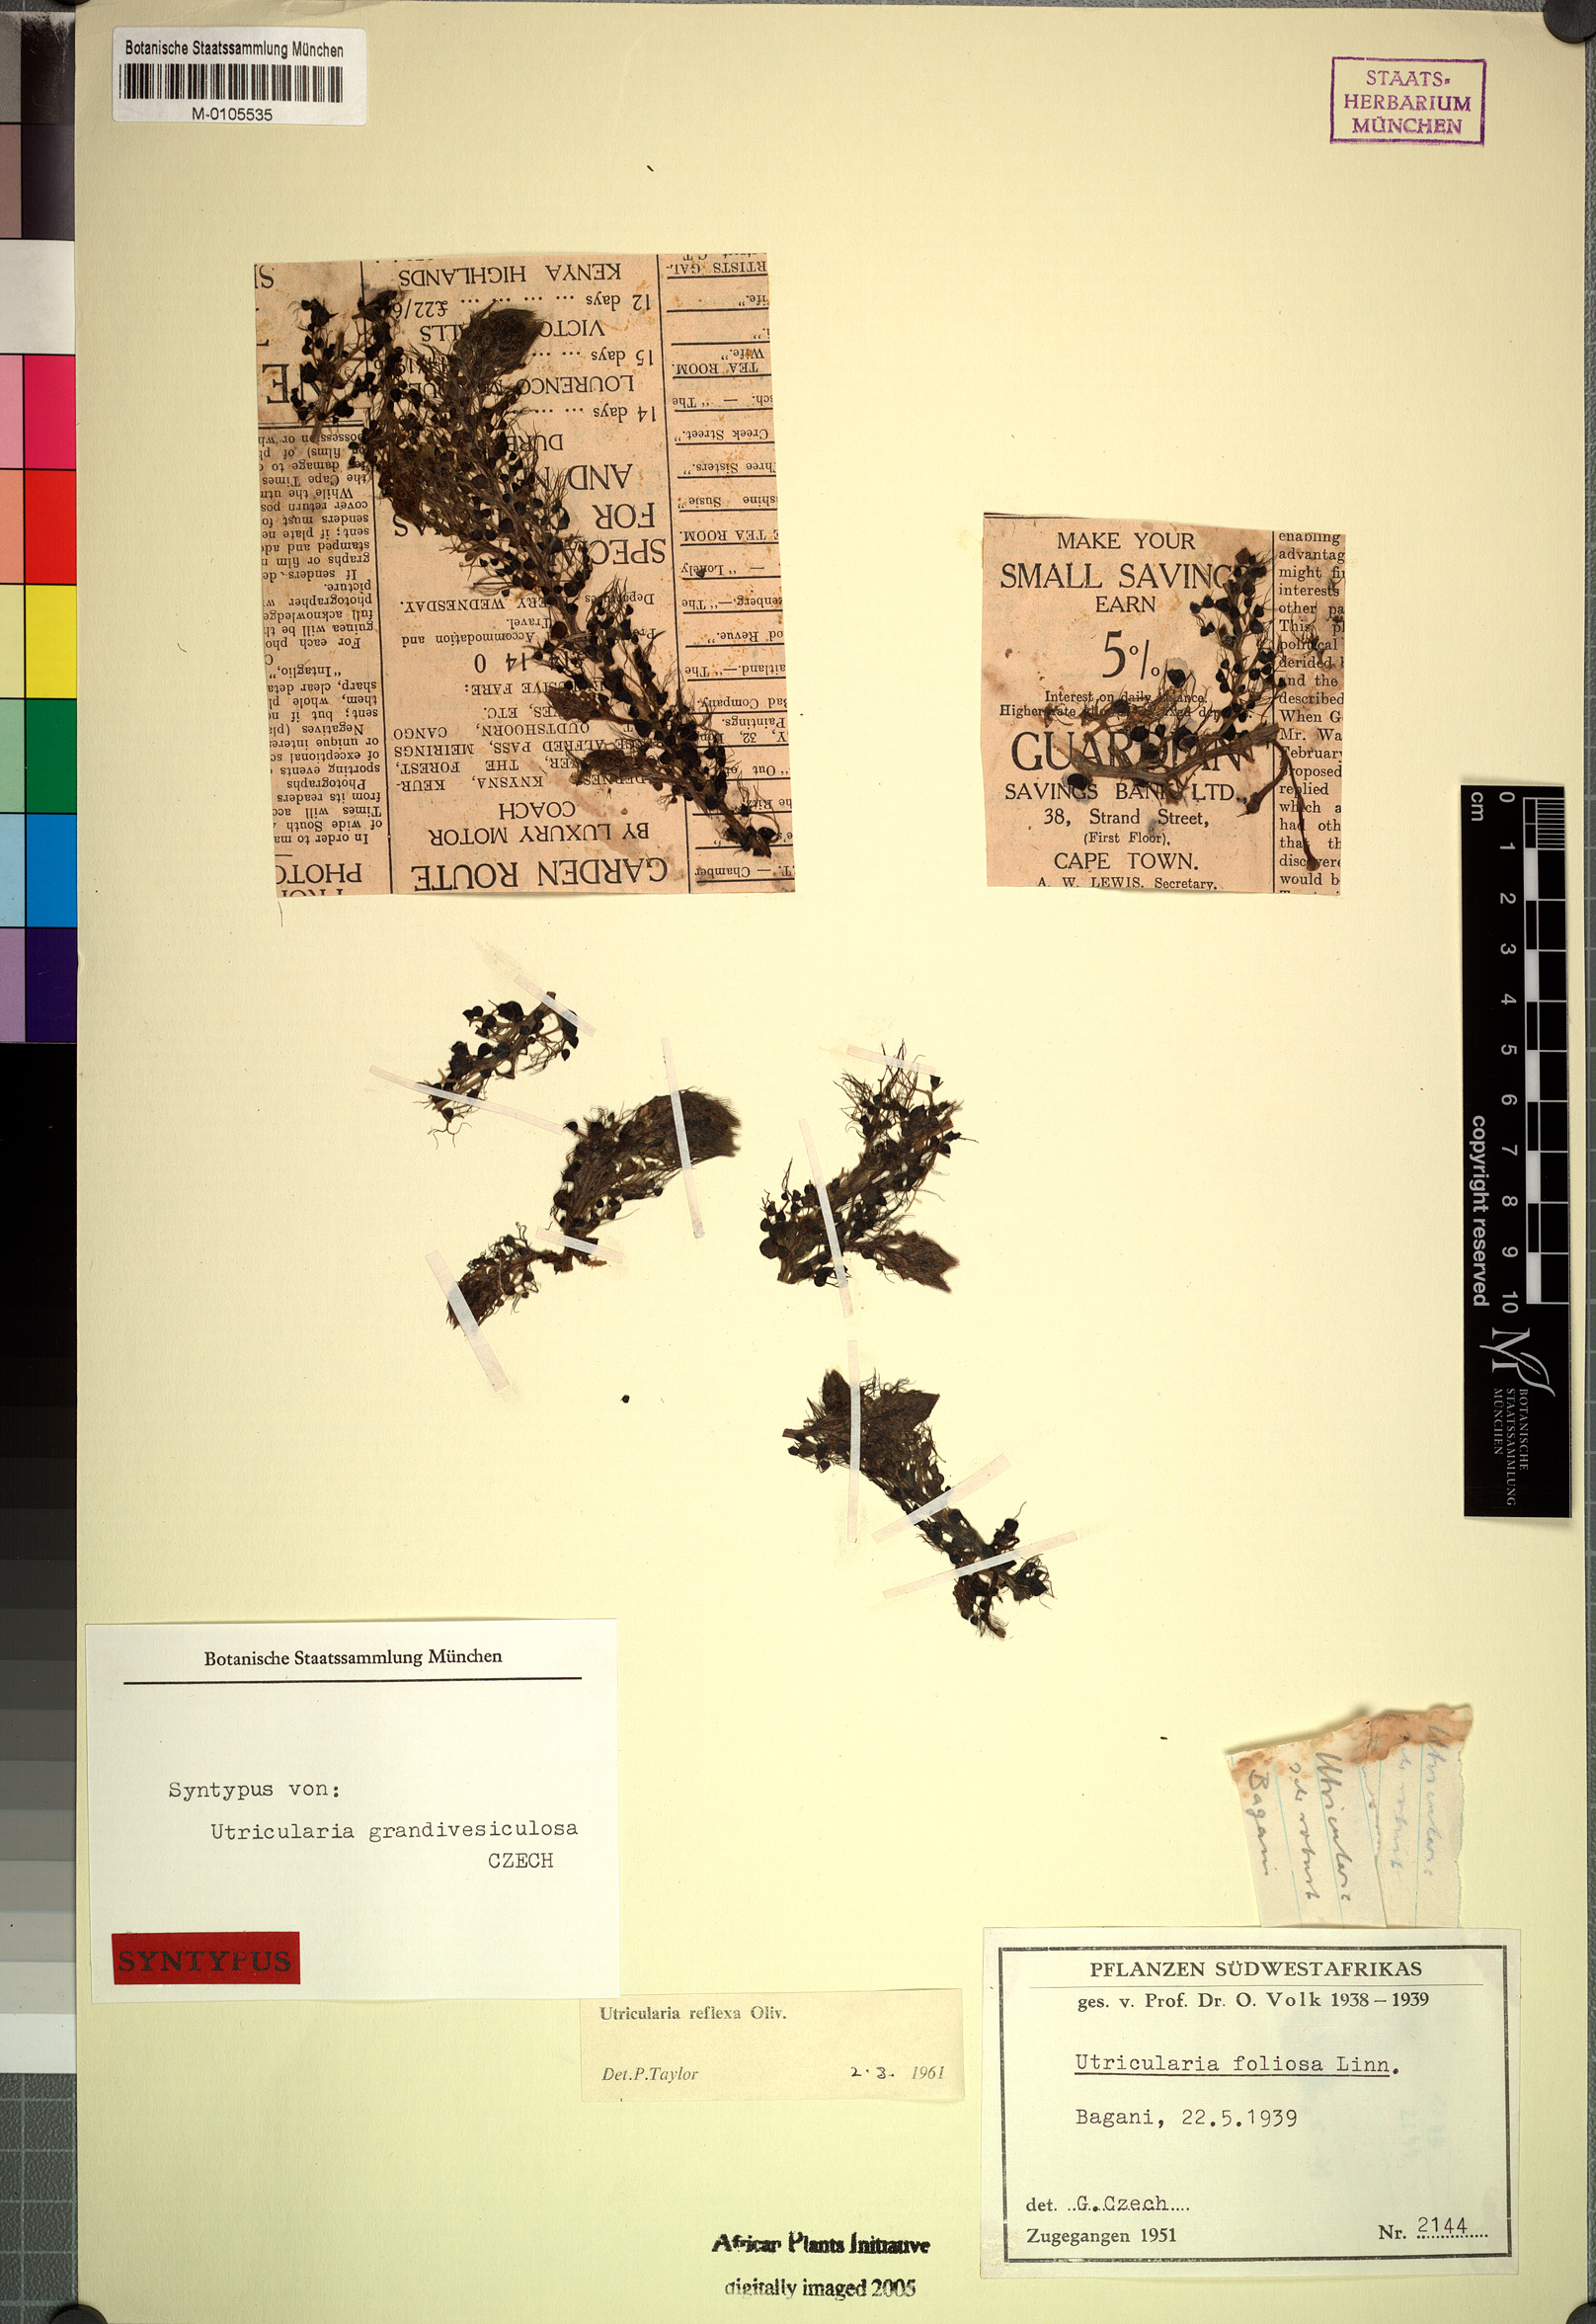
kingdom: Plantae
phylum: Tracheophyta
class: Magnoliopsida
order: Lamiales
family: Lentibulariaceae
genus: Utricularia
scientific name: Utricularia reflexa
